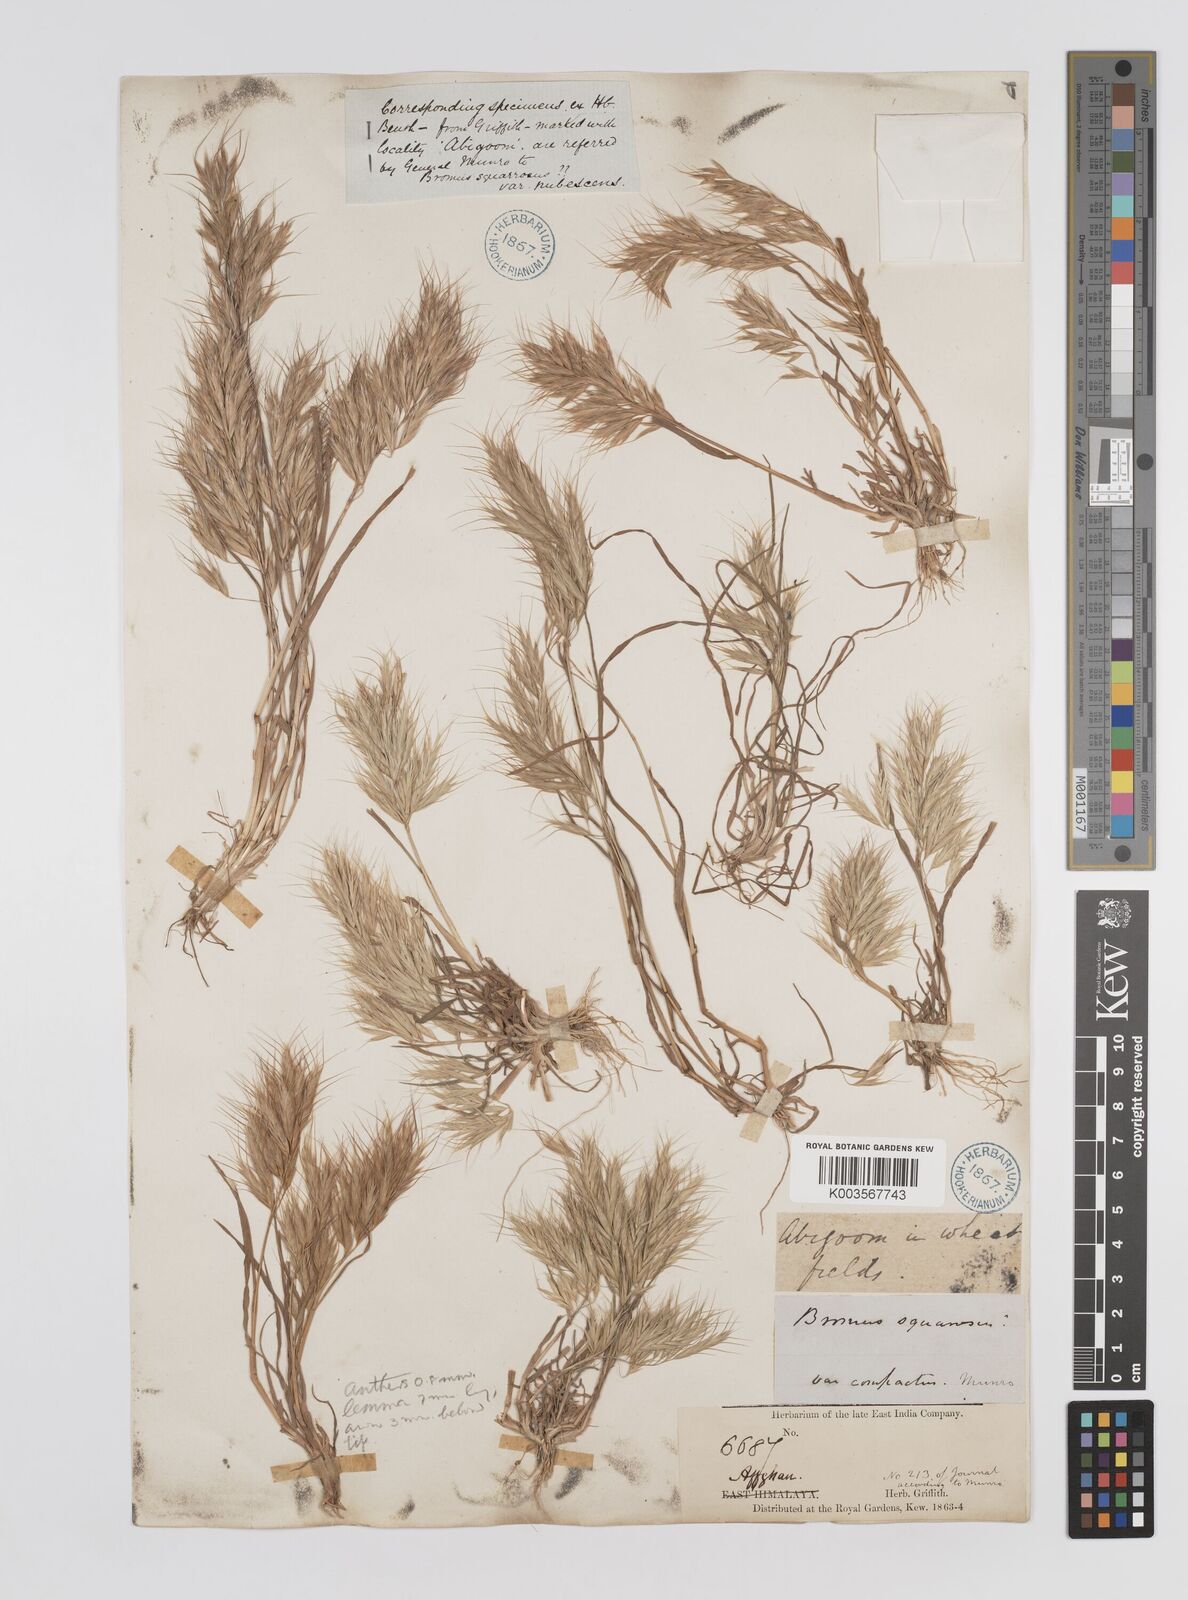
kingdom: Plantae
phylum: Tracheophyta
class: Liliopsida
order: Poales
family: Poaceae
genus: Bromus
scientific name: Bromus
